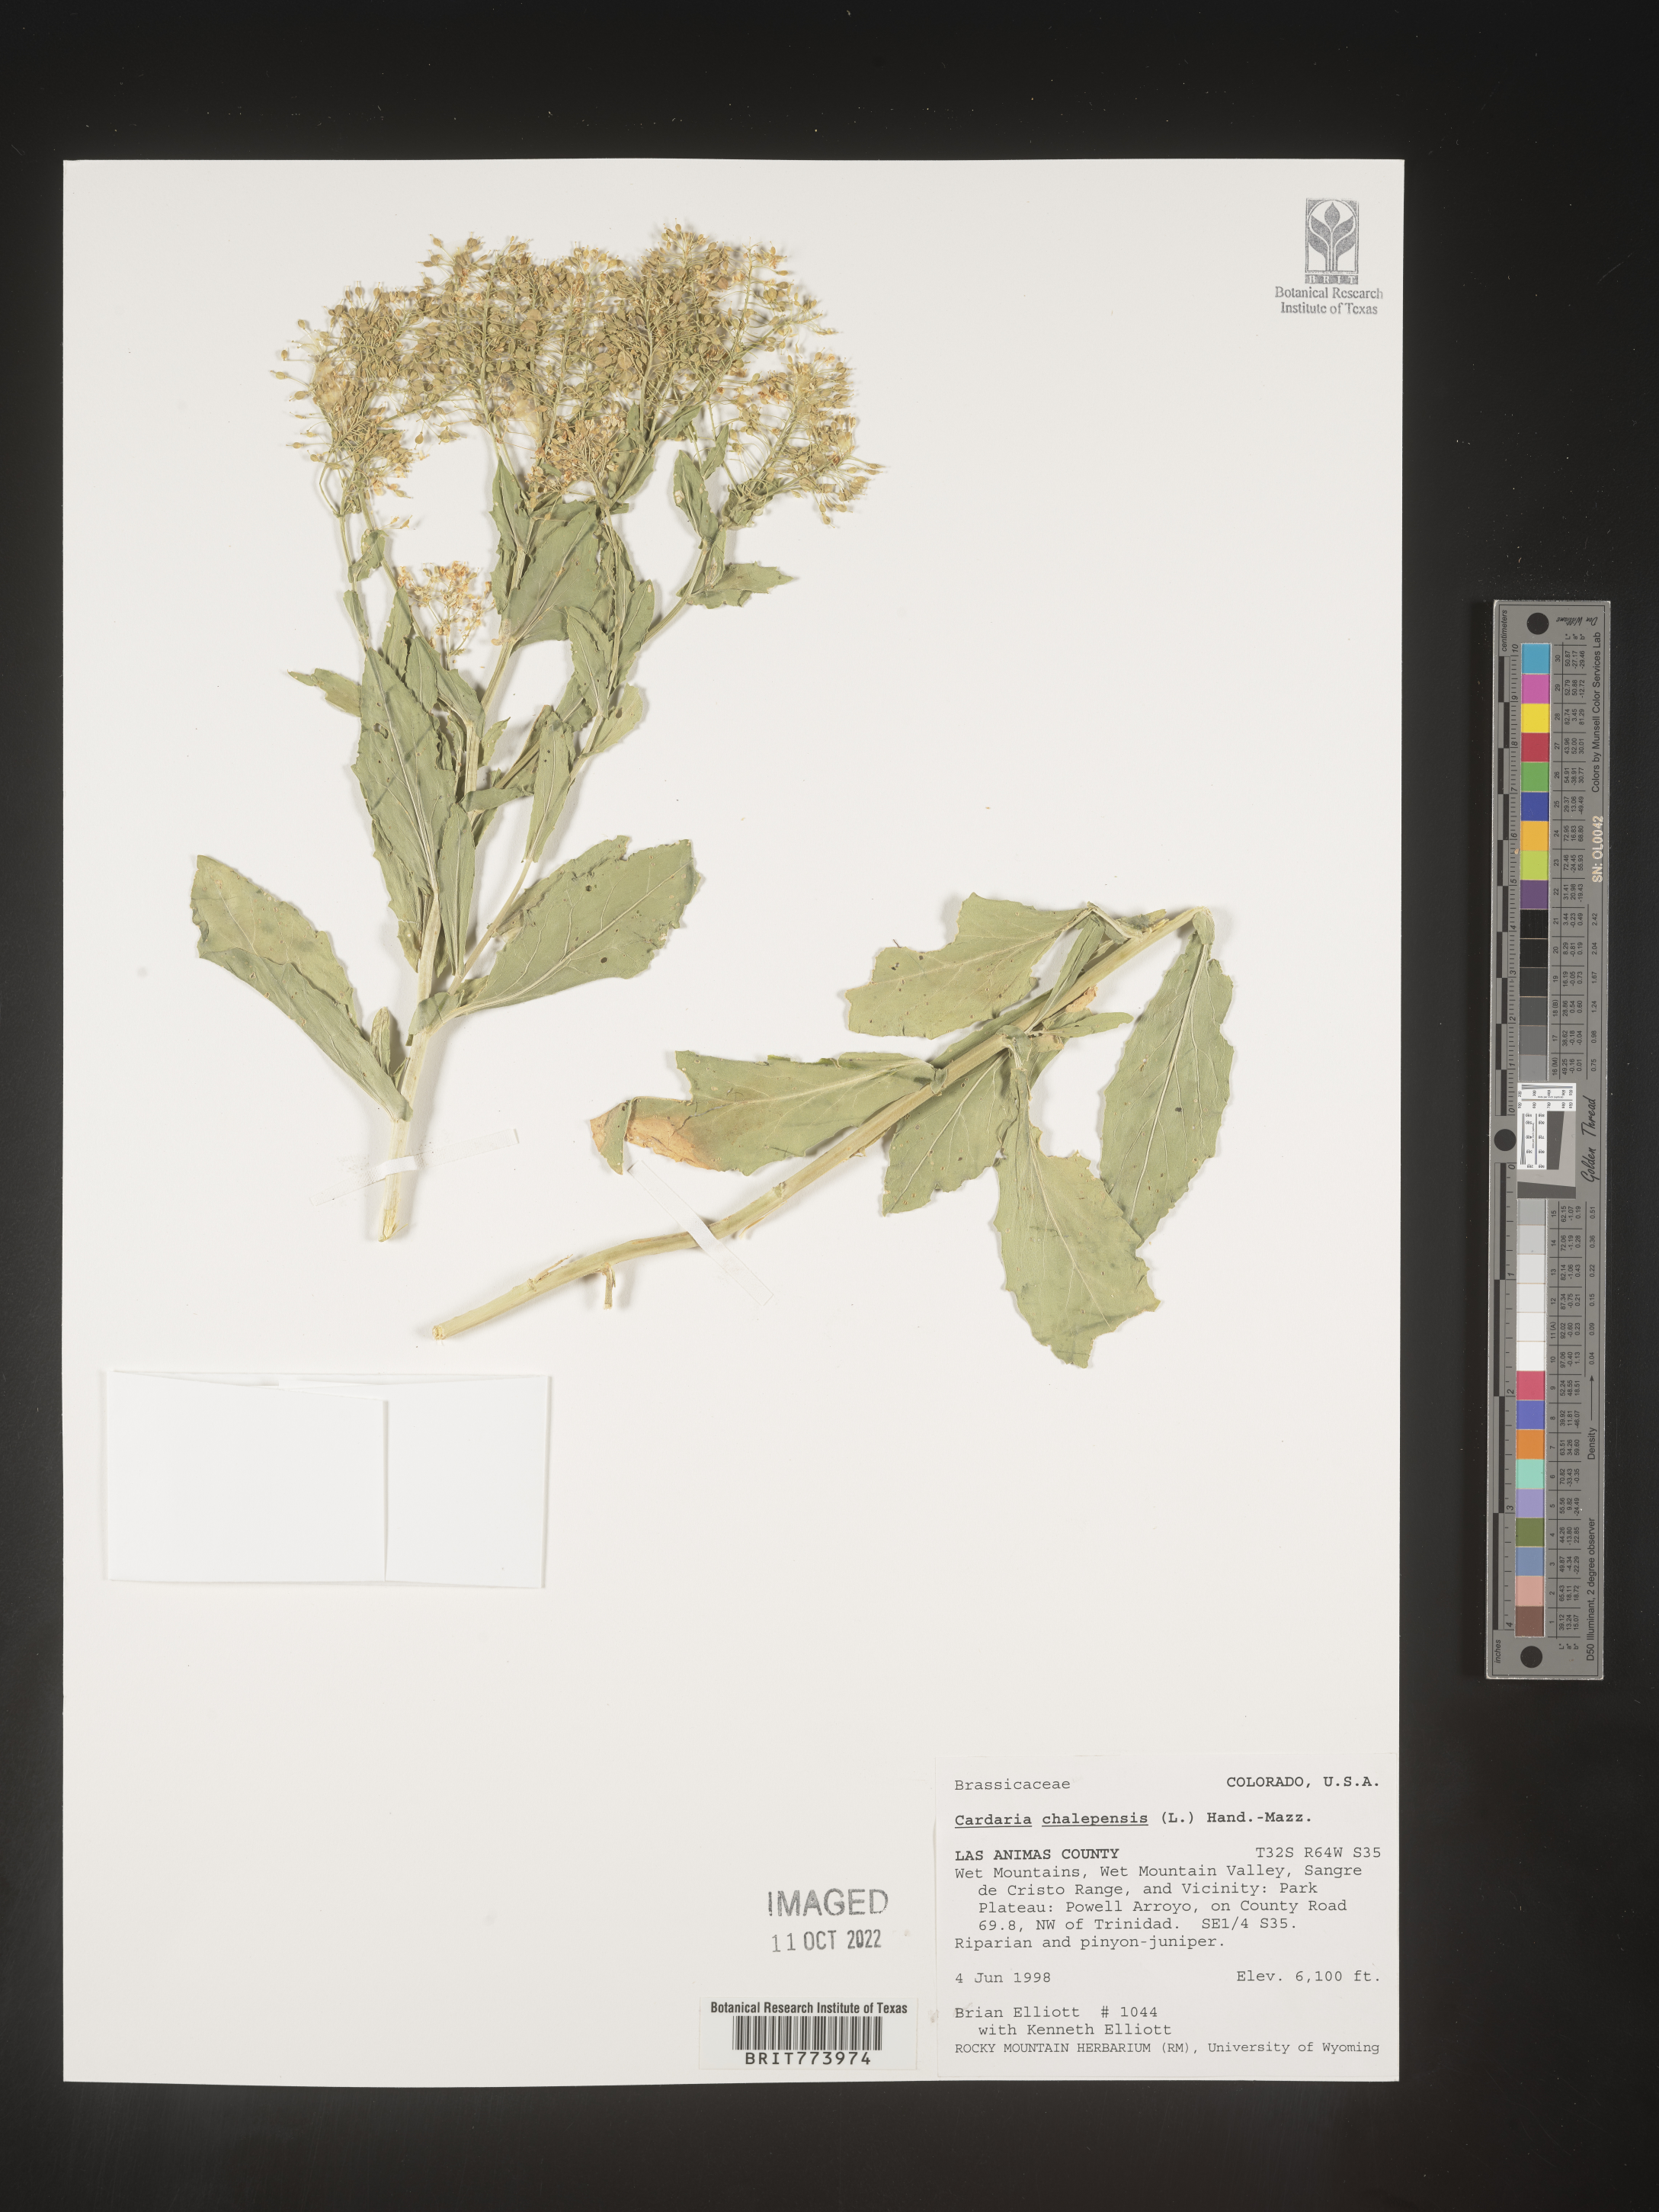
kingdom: Plantae
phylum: Tracheophyta
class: Magnoliopsida
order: Brassicales
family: Brassicaceae
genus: Lepidium
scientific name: Lepidium chalepense
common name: Orbicular whitetop
